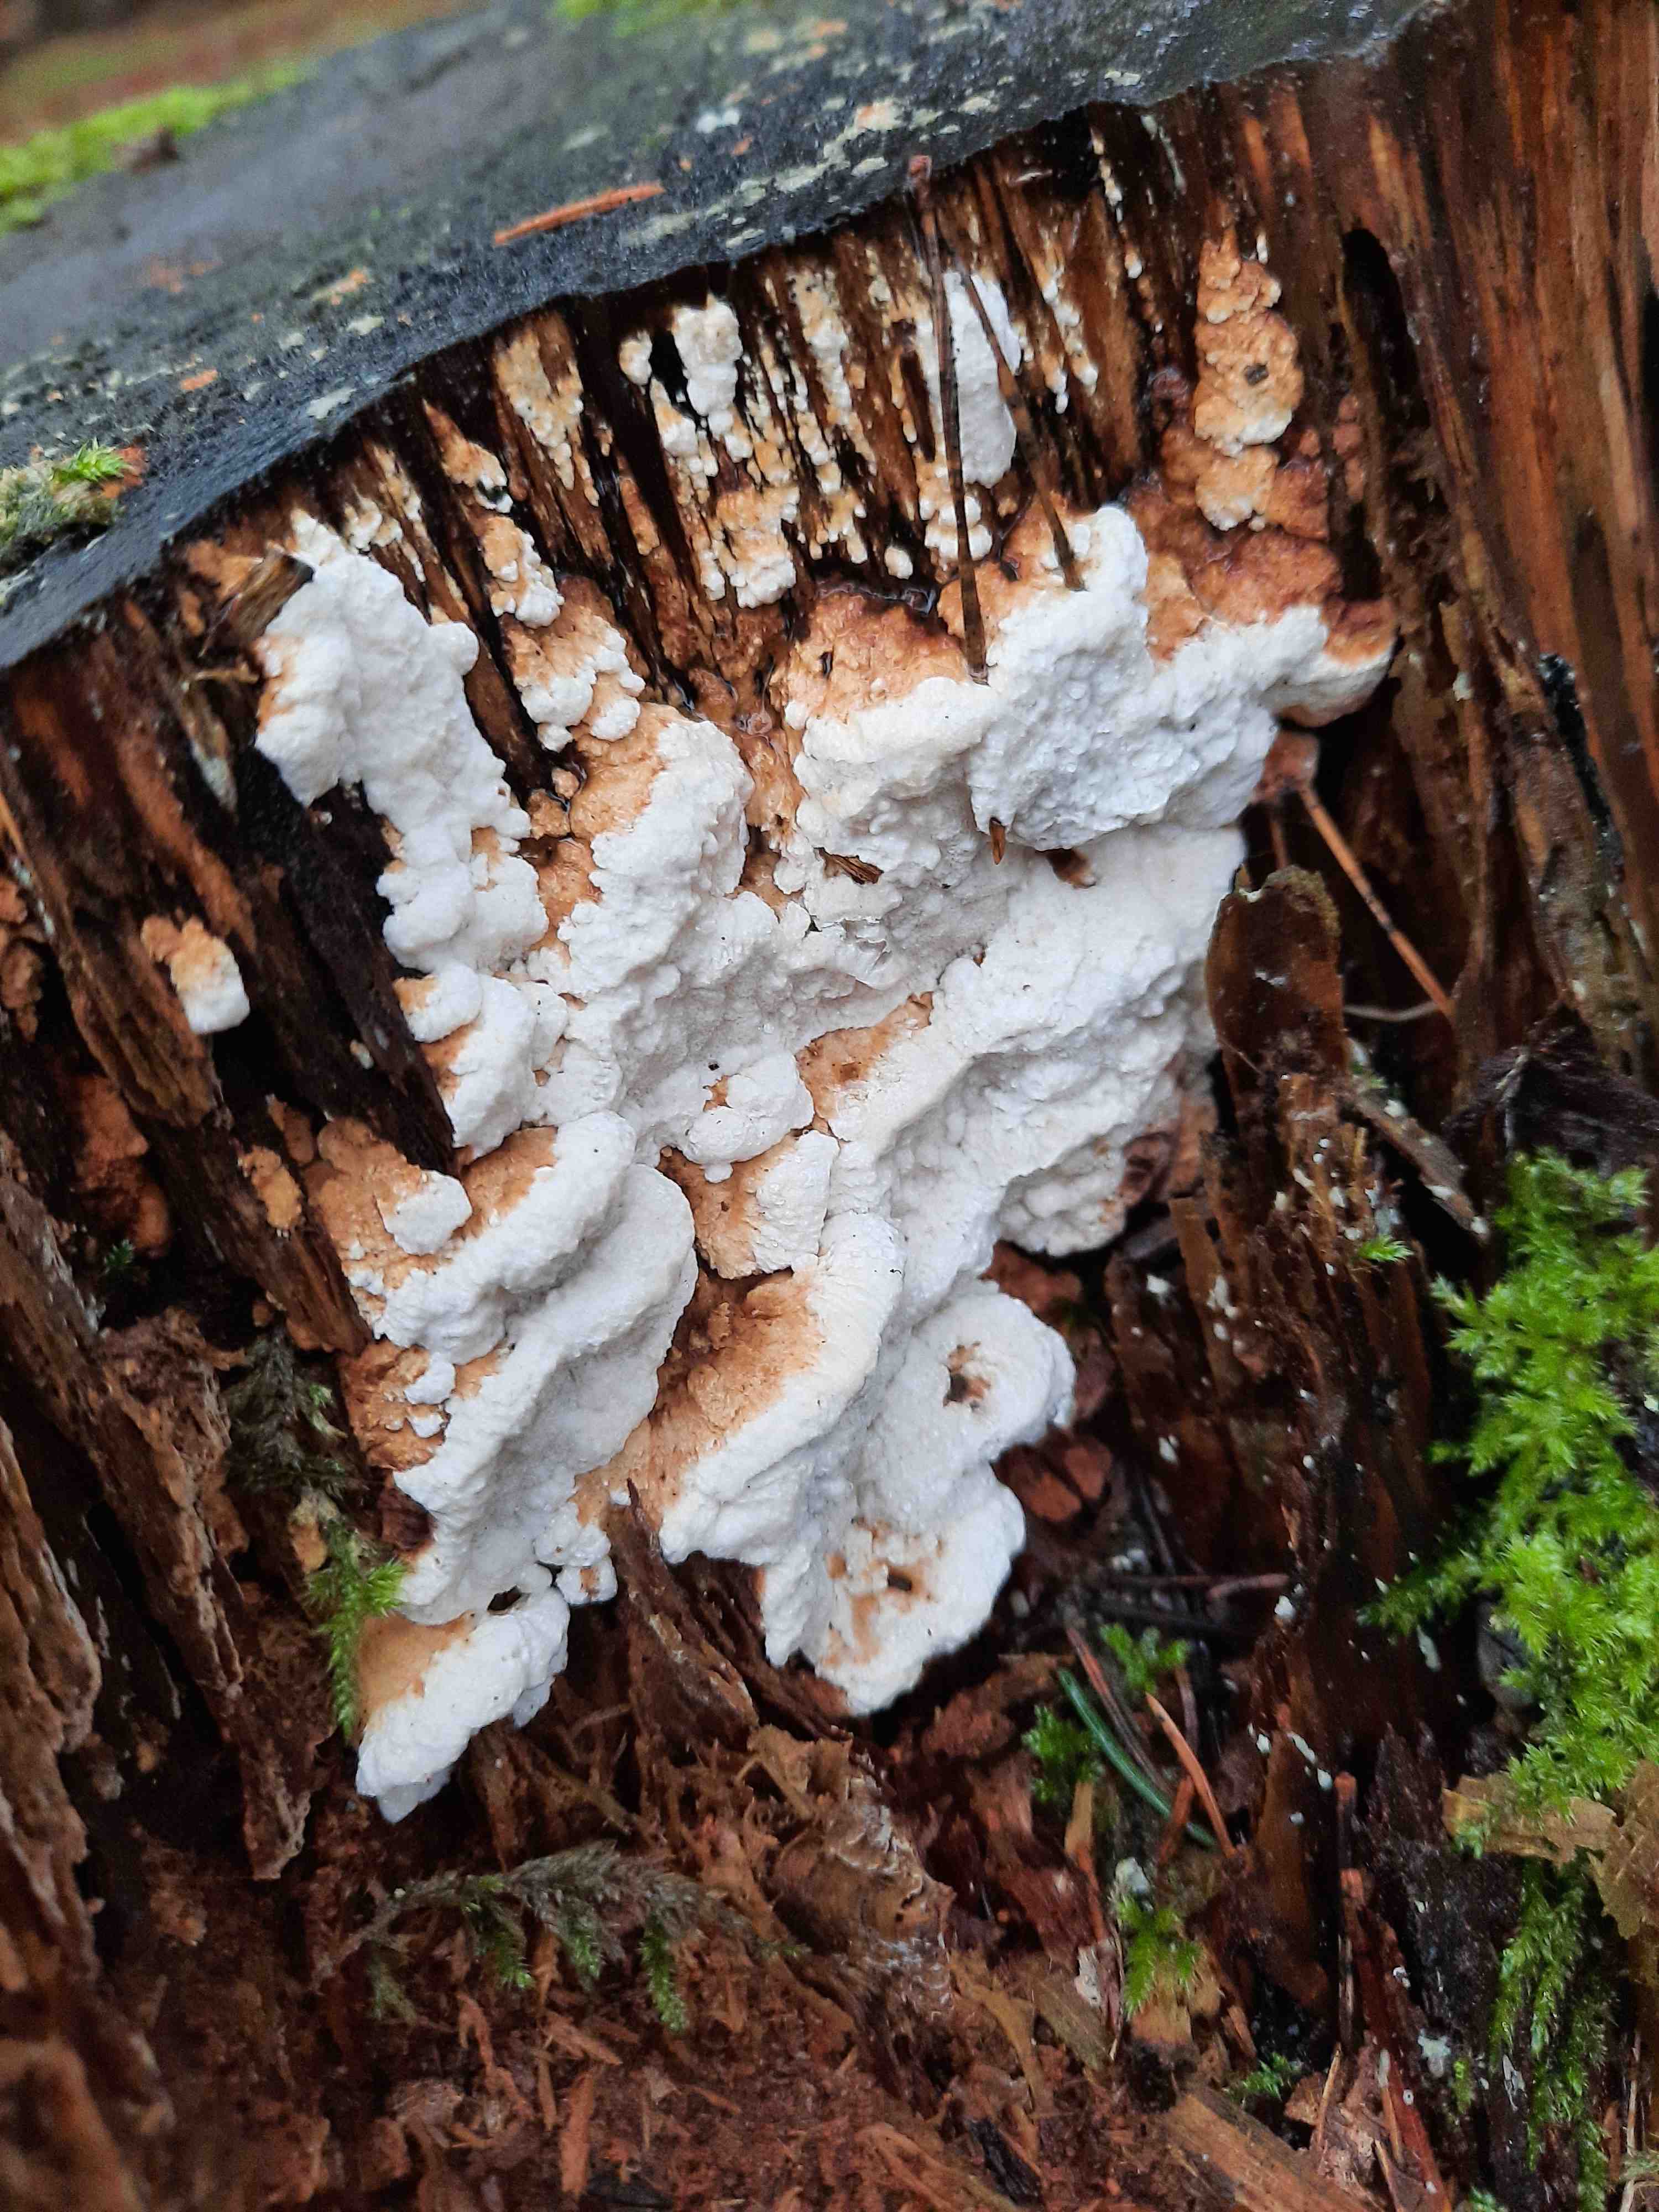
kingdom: Fungi
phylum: Basidiomycota
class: Agaricomycetes
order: Polyporales
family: Fomitopsidaceae
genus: Neoantrodia
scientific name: Neoantrodia serialis
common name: række-sejporesvamp
